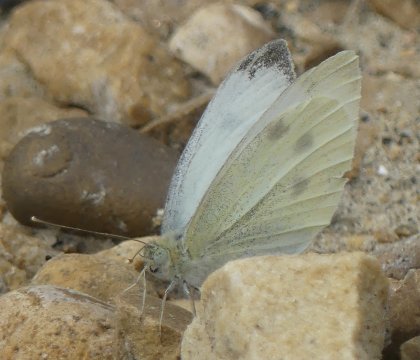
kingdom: Animalia
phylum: Arthropoda
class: Insecta
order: Lepidoptera
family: Pieridae
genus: Pieris
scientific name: Pieris rapae
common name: Cabbage White
